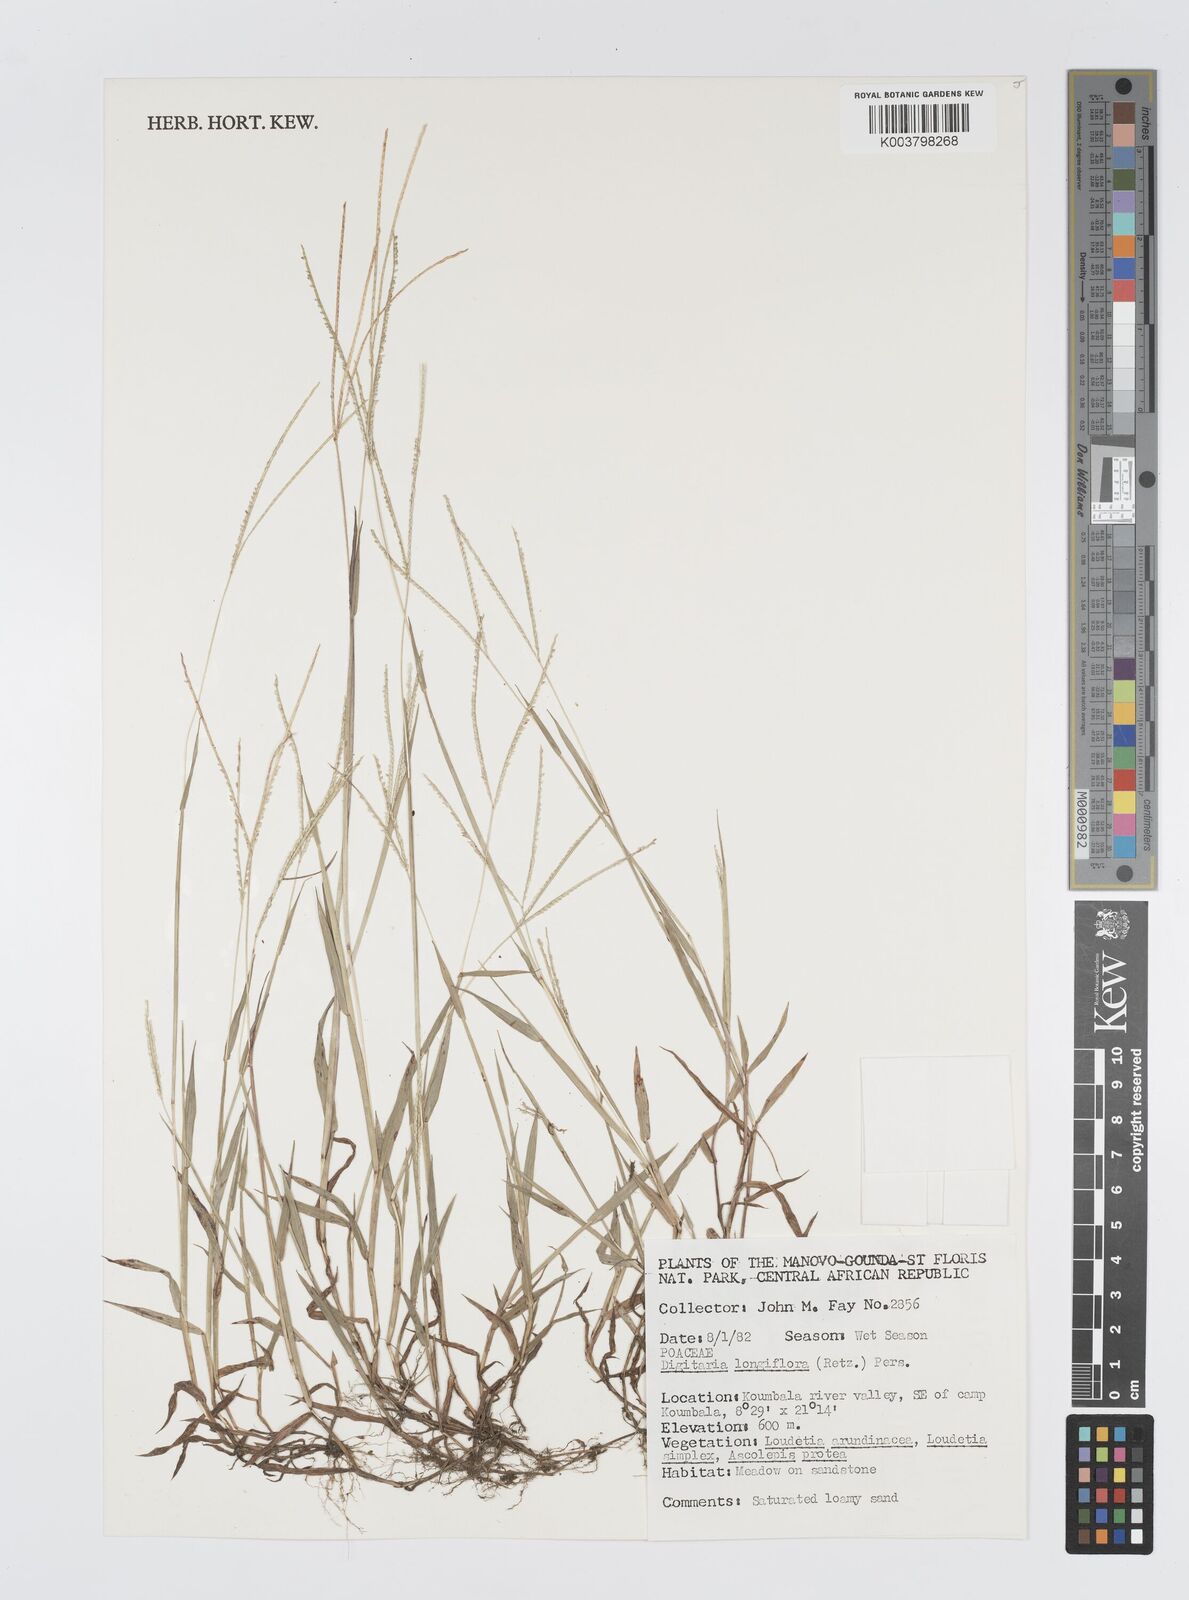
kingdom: Plantae
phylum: Tracheophyta
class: Liliopsida
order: Poales
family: Poaceae
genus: Digitaria
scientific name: Digitaria longiflora
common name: Wire crabgrass
